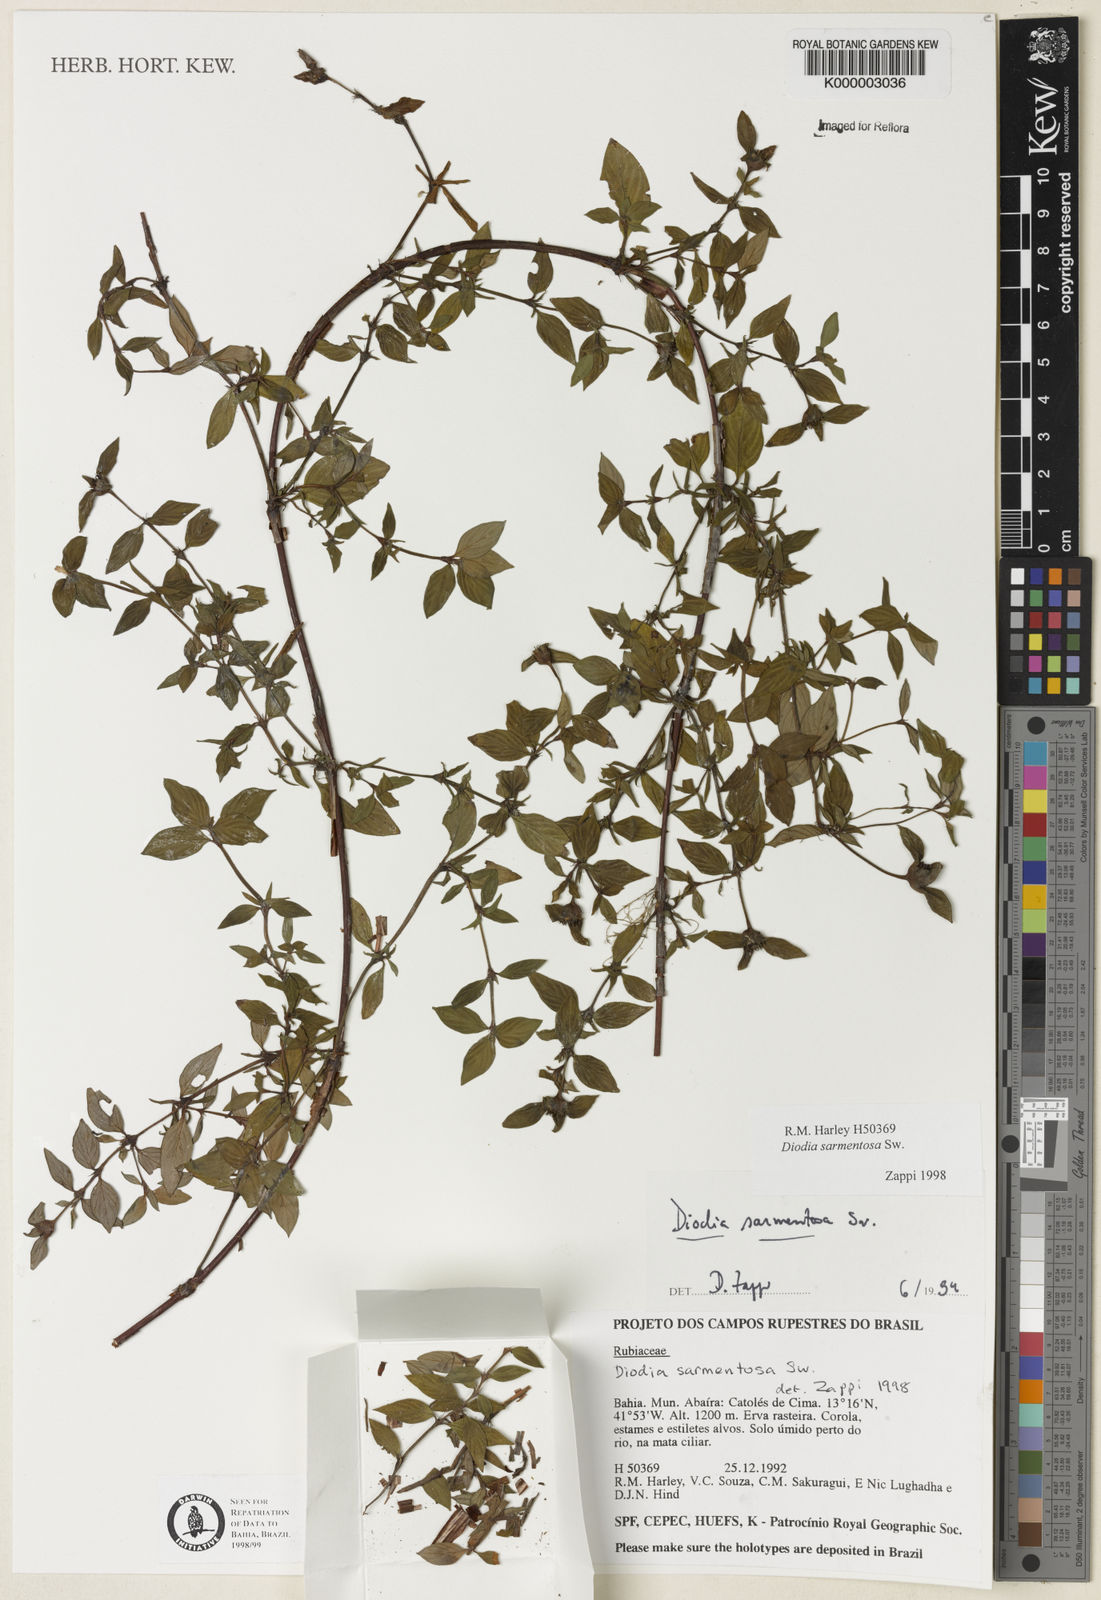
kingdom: Plantae
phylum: Tracheophyta
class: Magnoliopsida
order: Gentianales
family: Rubiaceae
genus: Hexasepalum
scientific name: Hexasepalum sarmentosum
